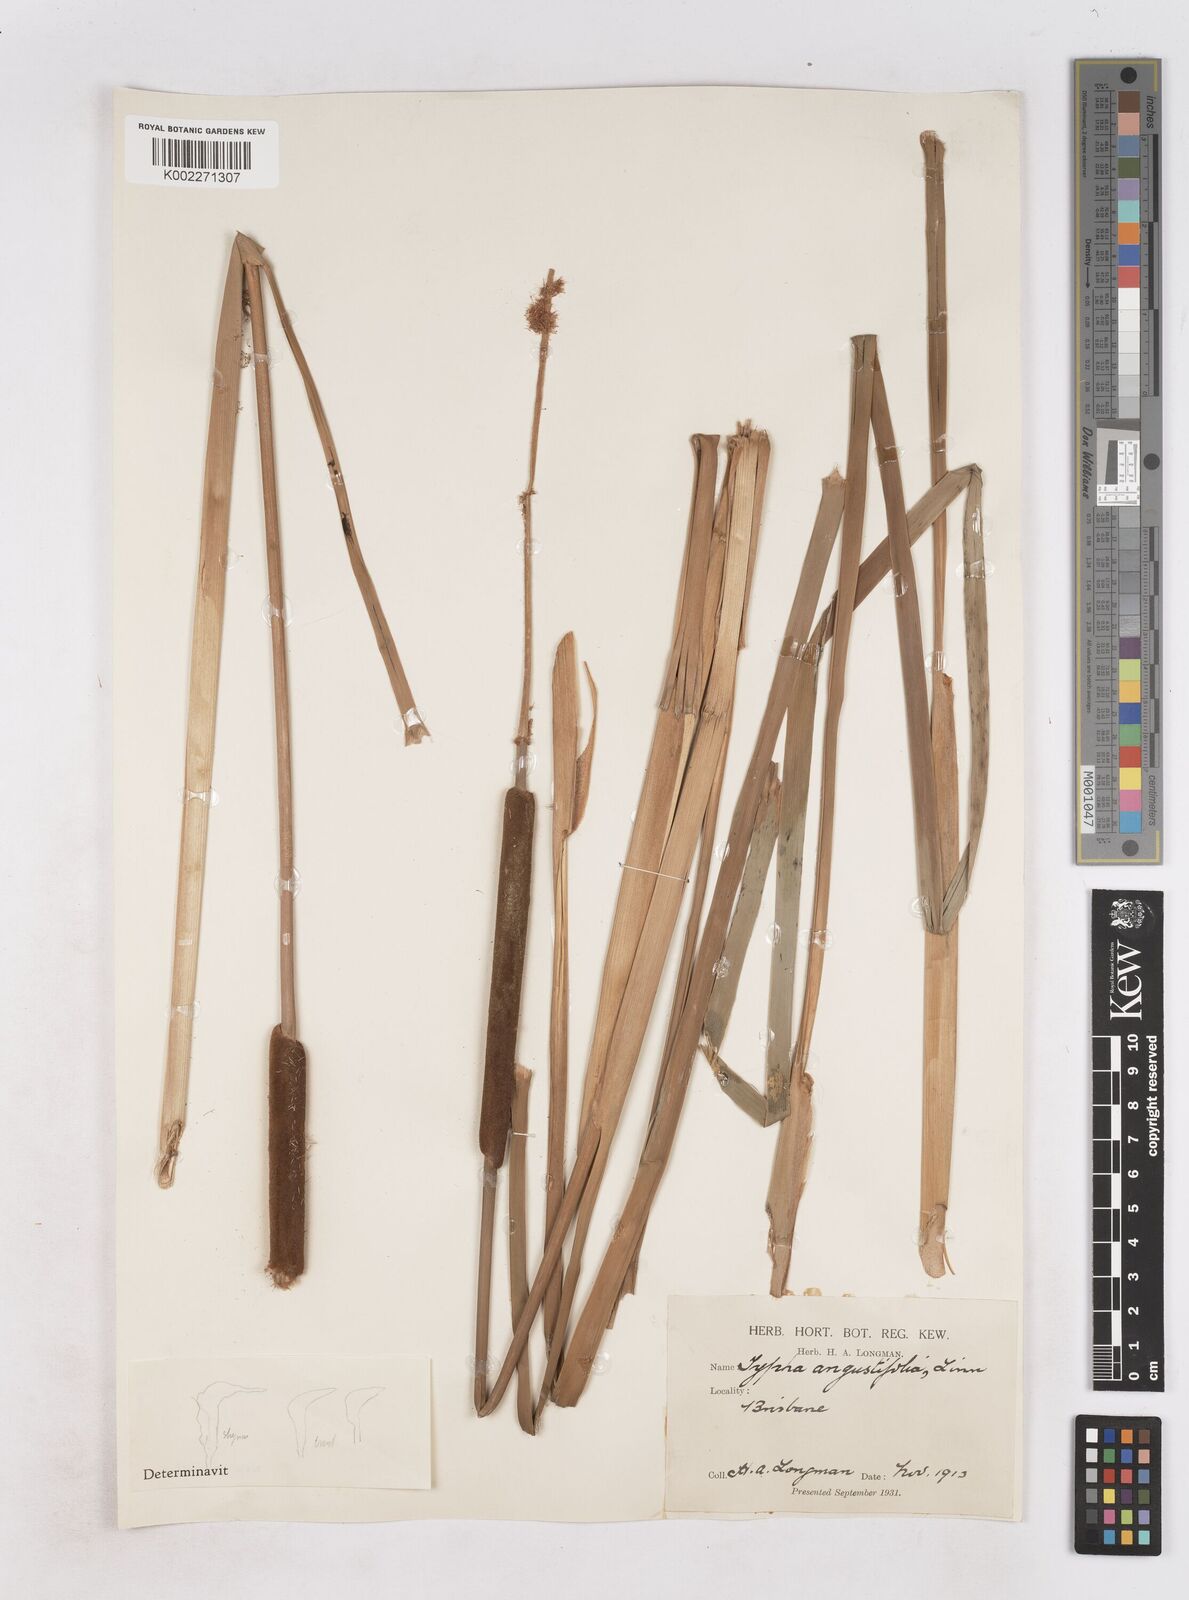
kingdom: Plantae
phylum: Tracheophyta
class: Liliopsida
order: Poales
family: Typhaceae
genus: Typha
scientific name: Typha orientalis
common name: Bullrush
